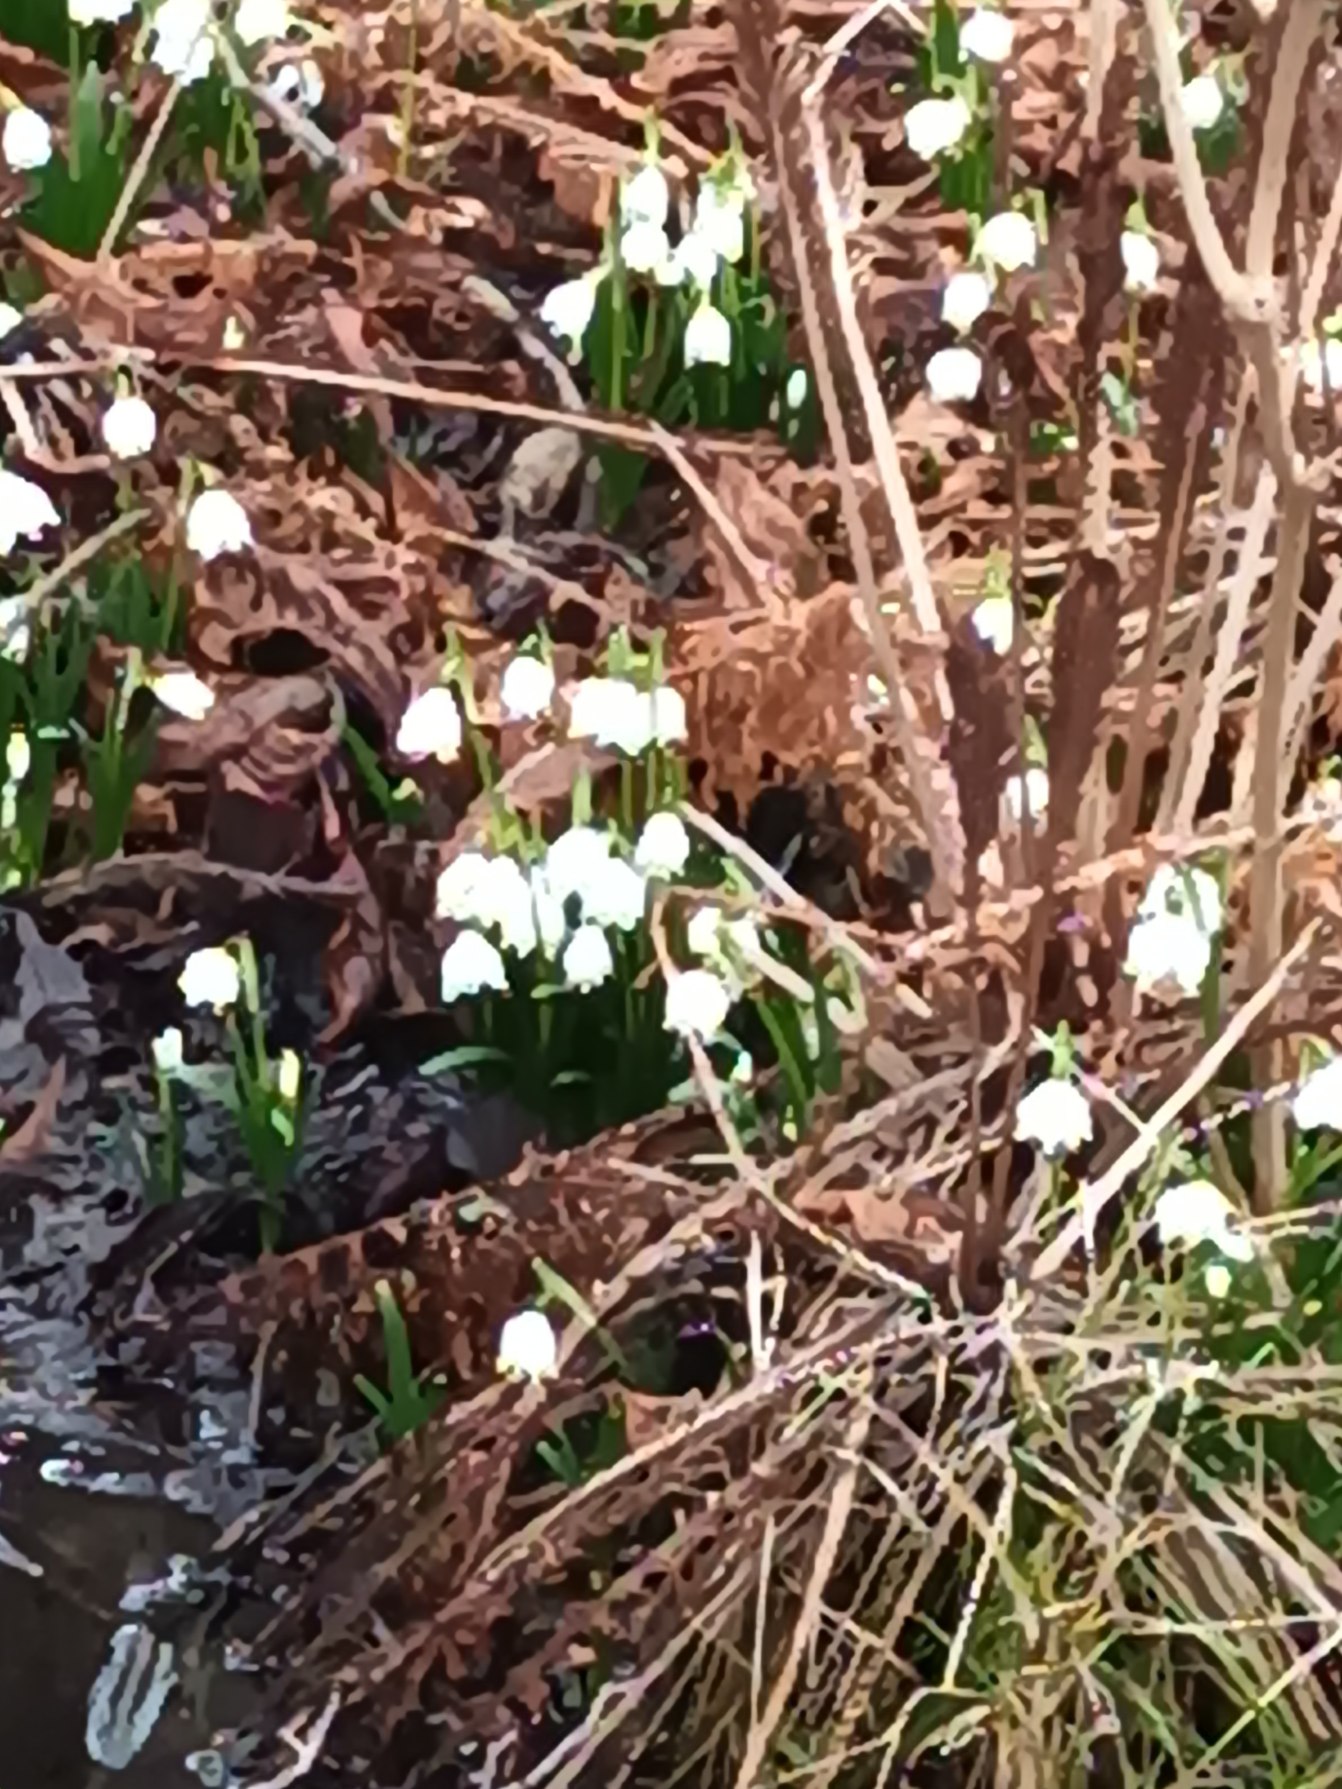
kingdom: Plantae
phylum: Tracheophyta
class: Liliopsida
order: Asparagales
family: Amaryllidaceae
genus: Leucojum
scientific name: Leucojum vernum
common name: Dorthealilje
